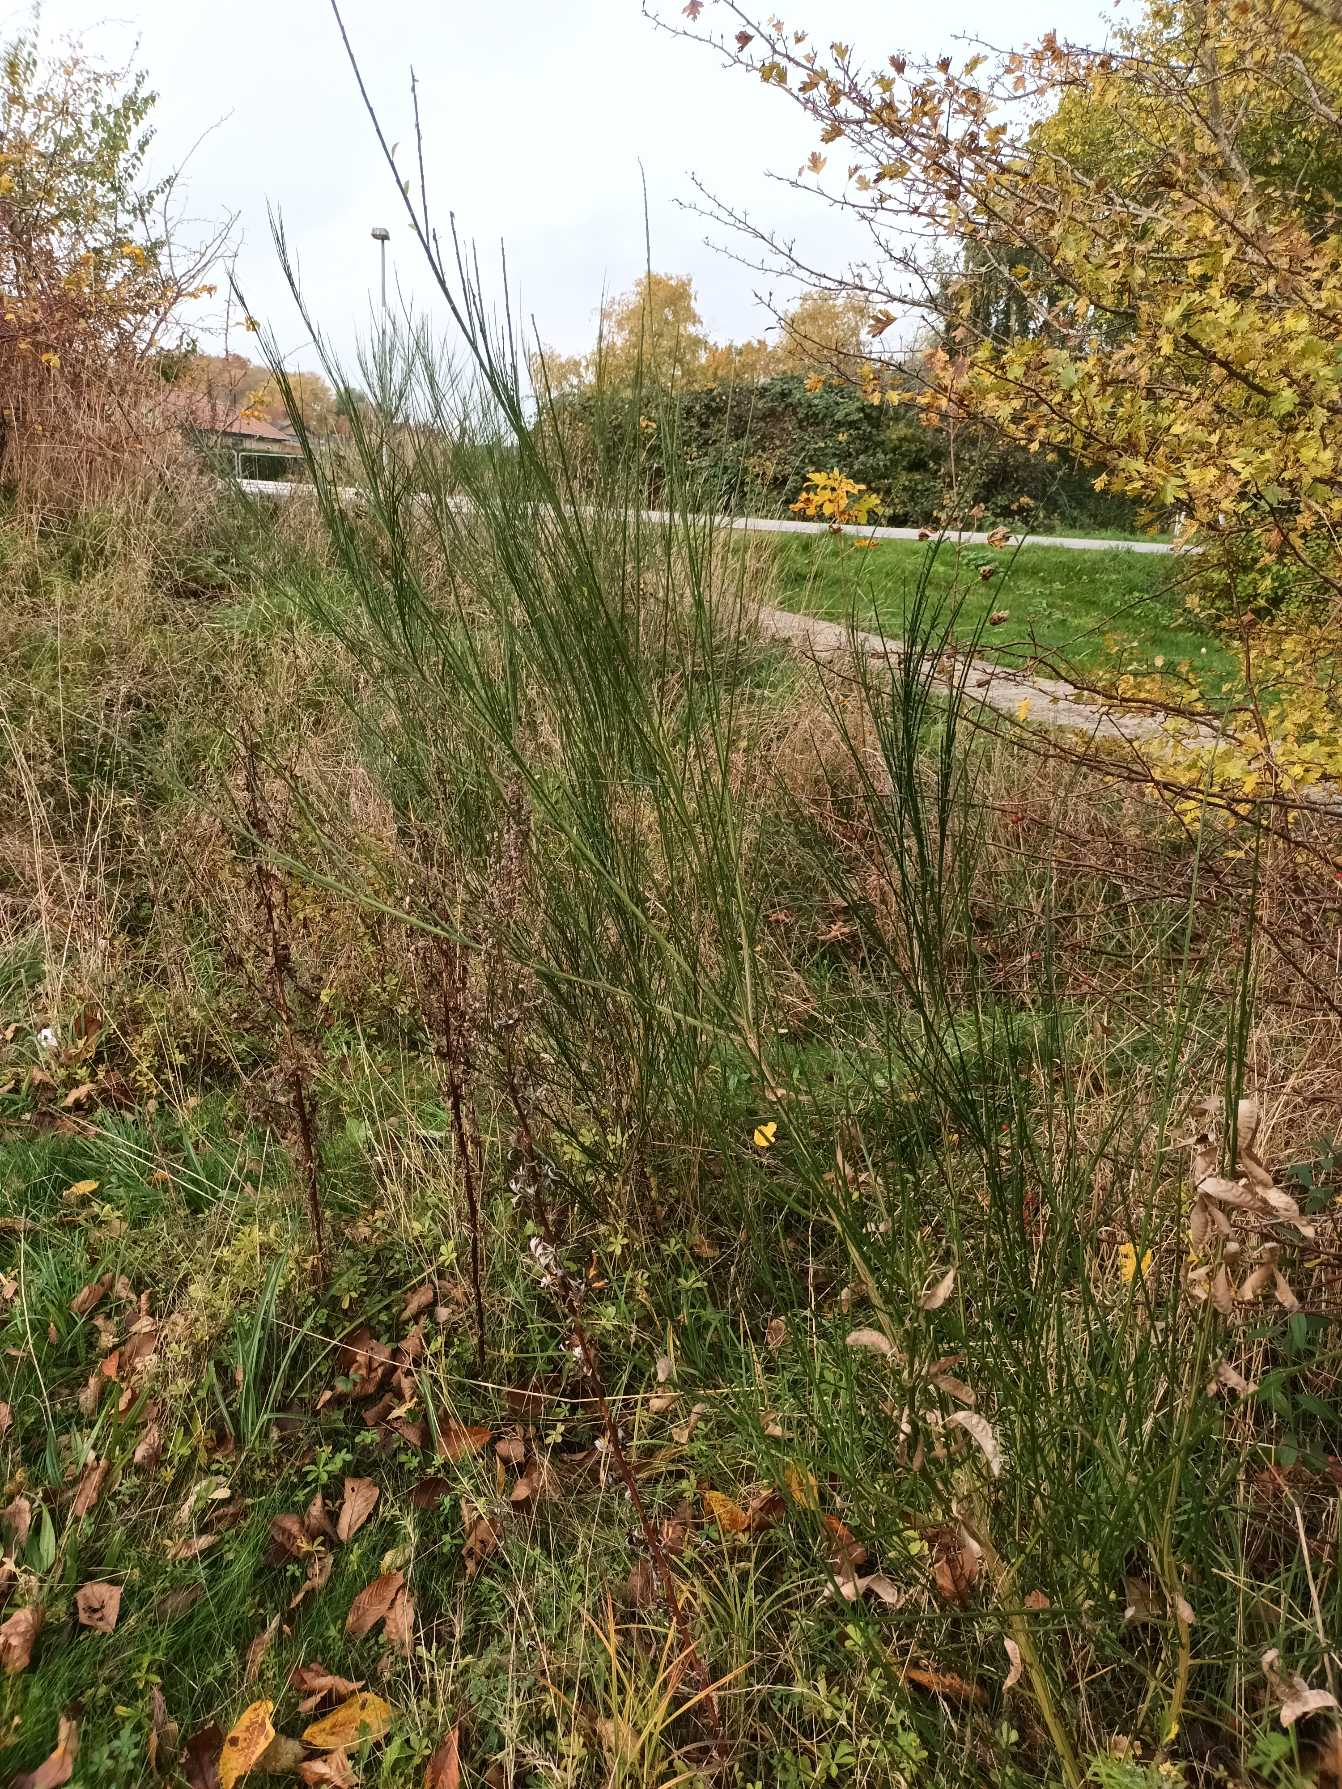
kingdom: Plantae
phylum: Tracheophyta
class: Magnoliopsida
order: Fabales
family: Fabaceae
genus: Cytisus
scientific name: Cytisus scoparius
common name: Almindelig gyvel
